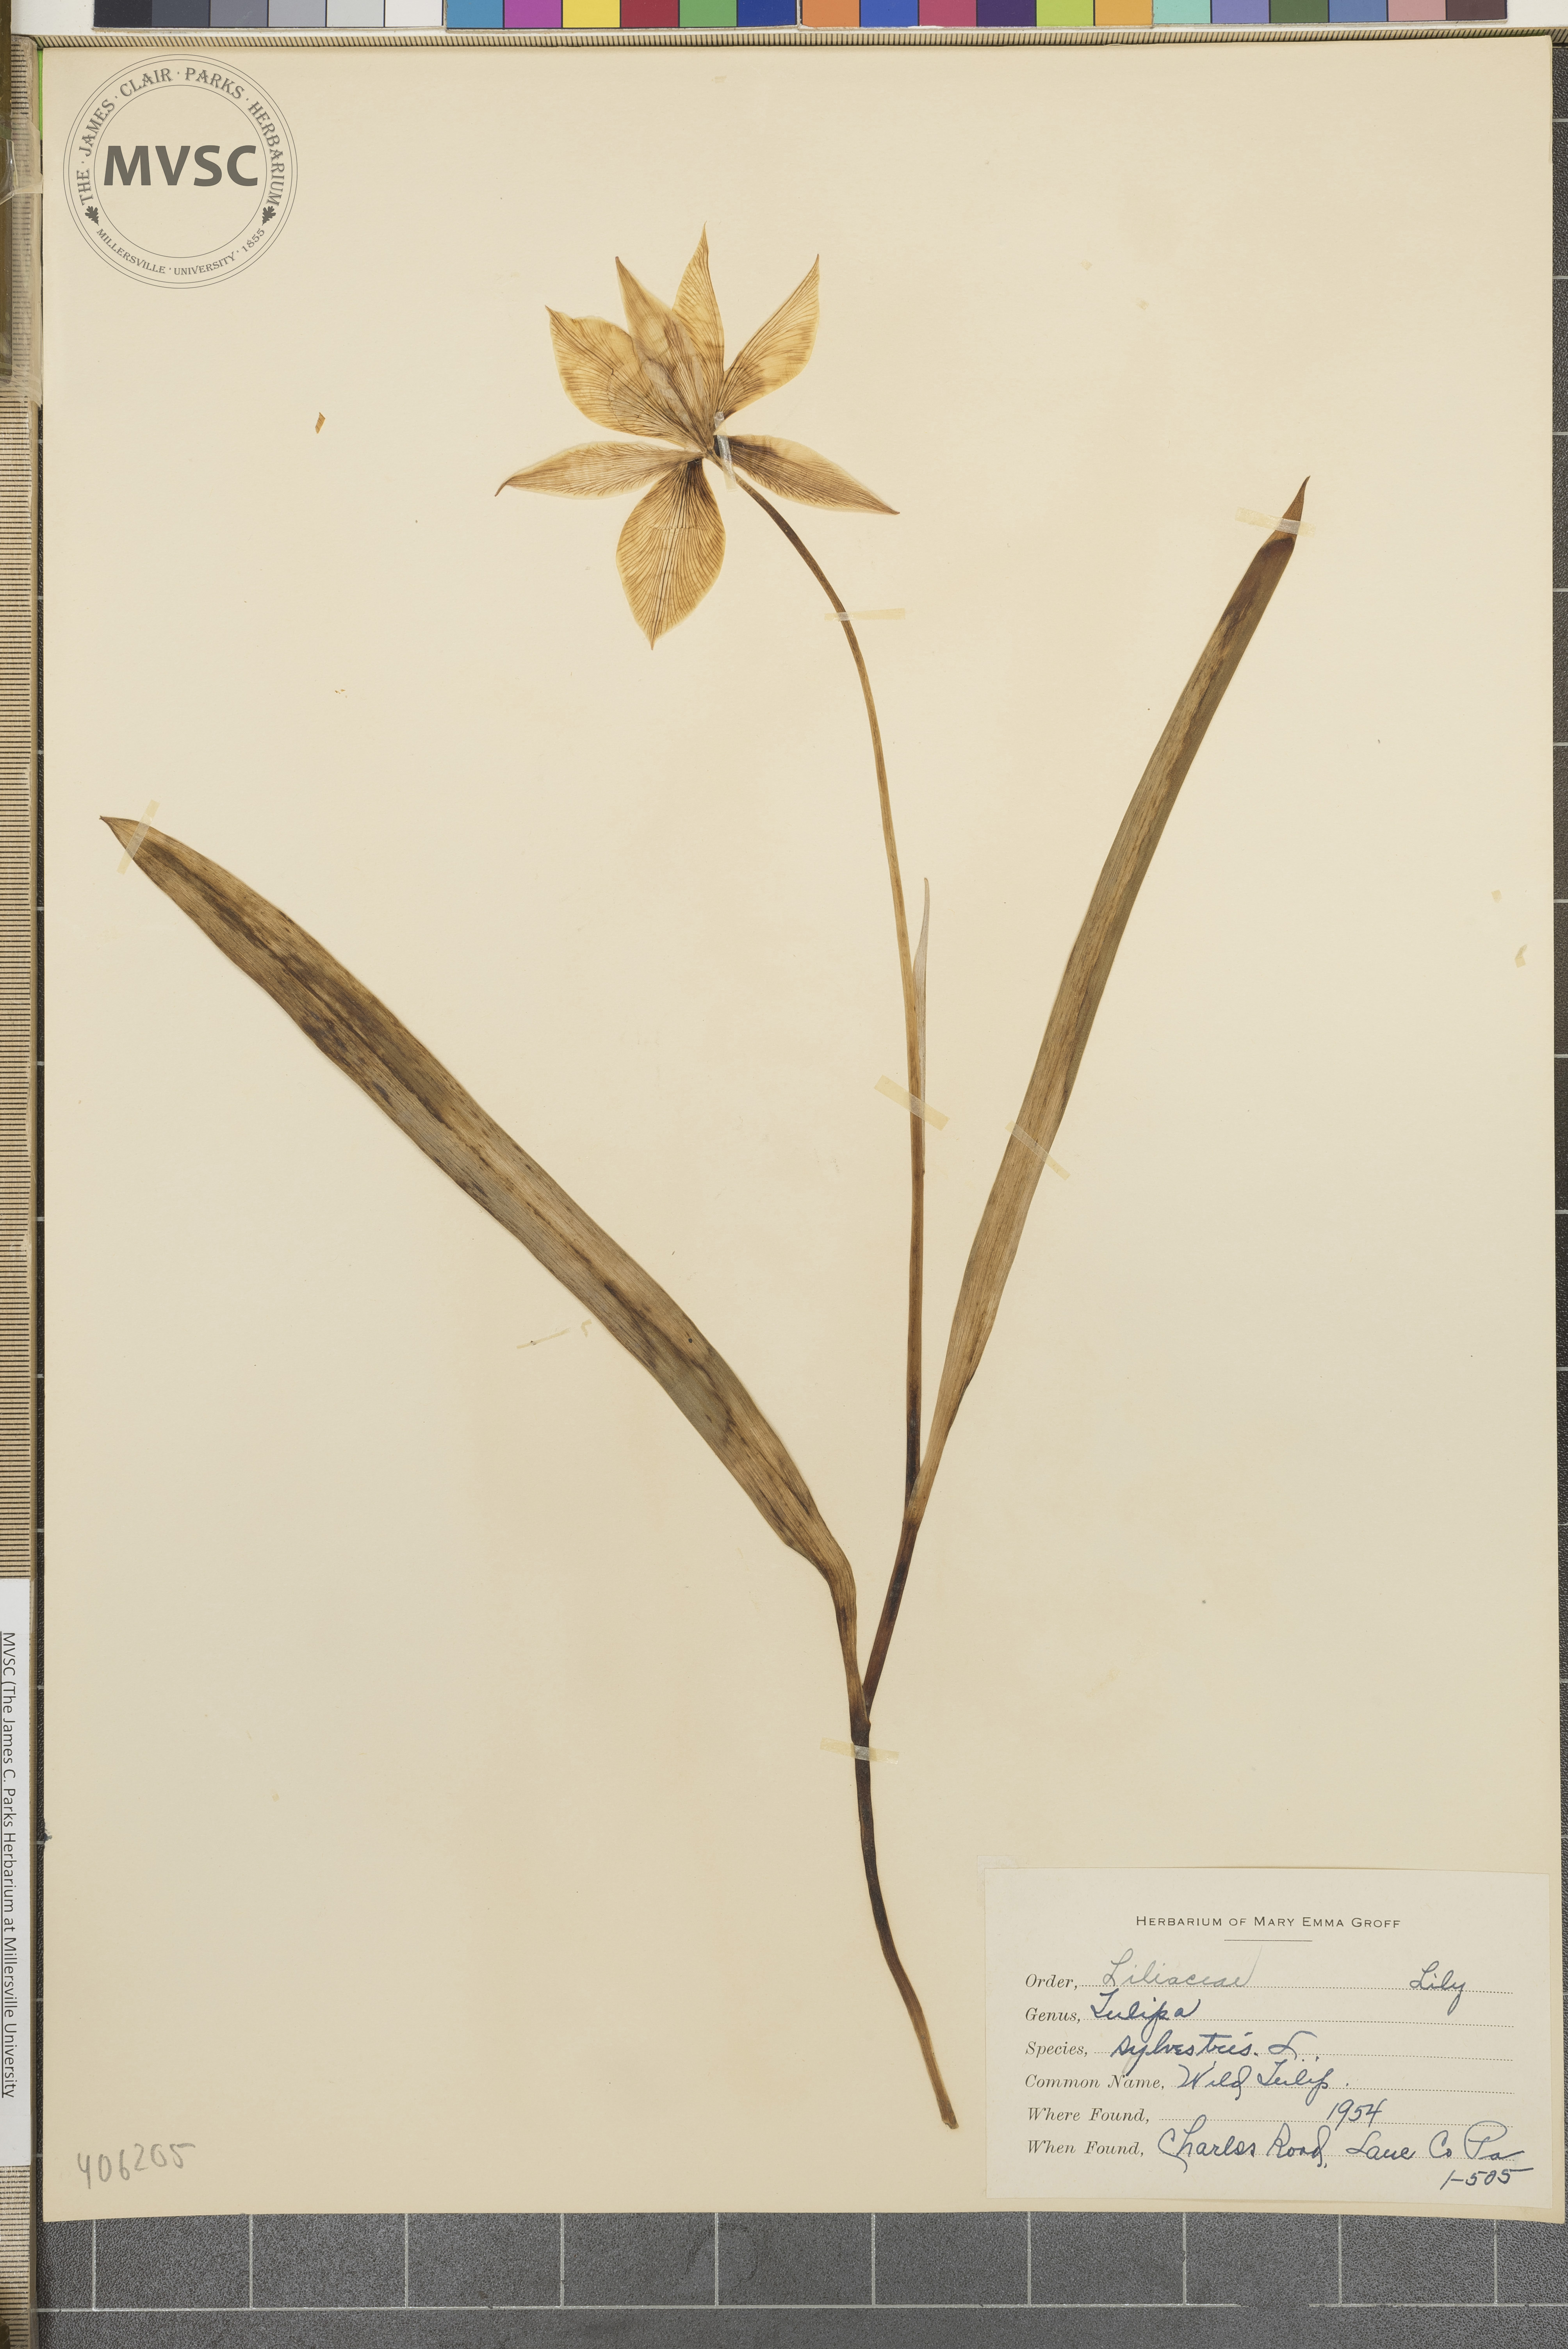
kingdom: Plantae
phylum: Tracheophyta
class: Liliopsida
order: Liliales
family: Liliaceae
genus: Tulipa
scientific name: Tulipa sylvestris
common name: Wild Tulip
